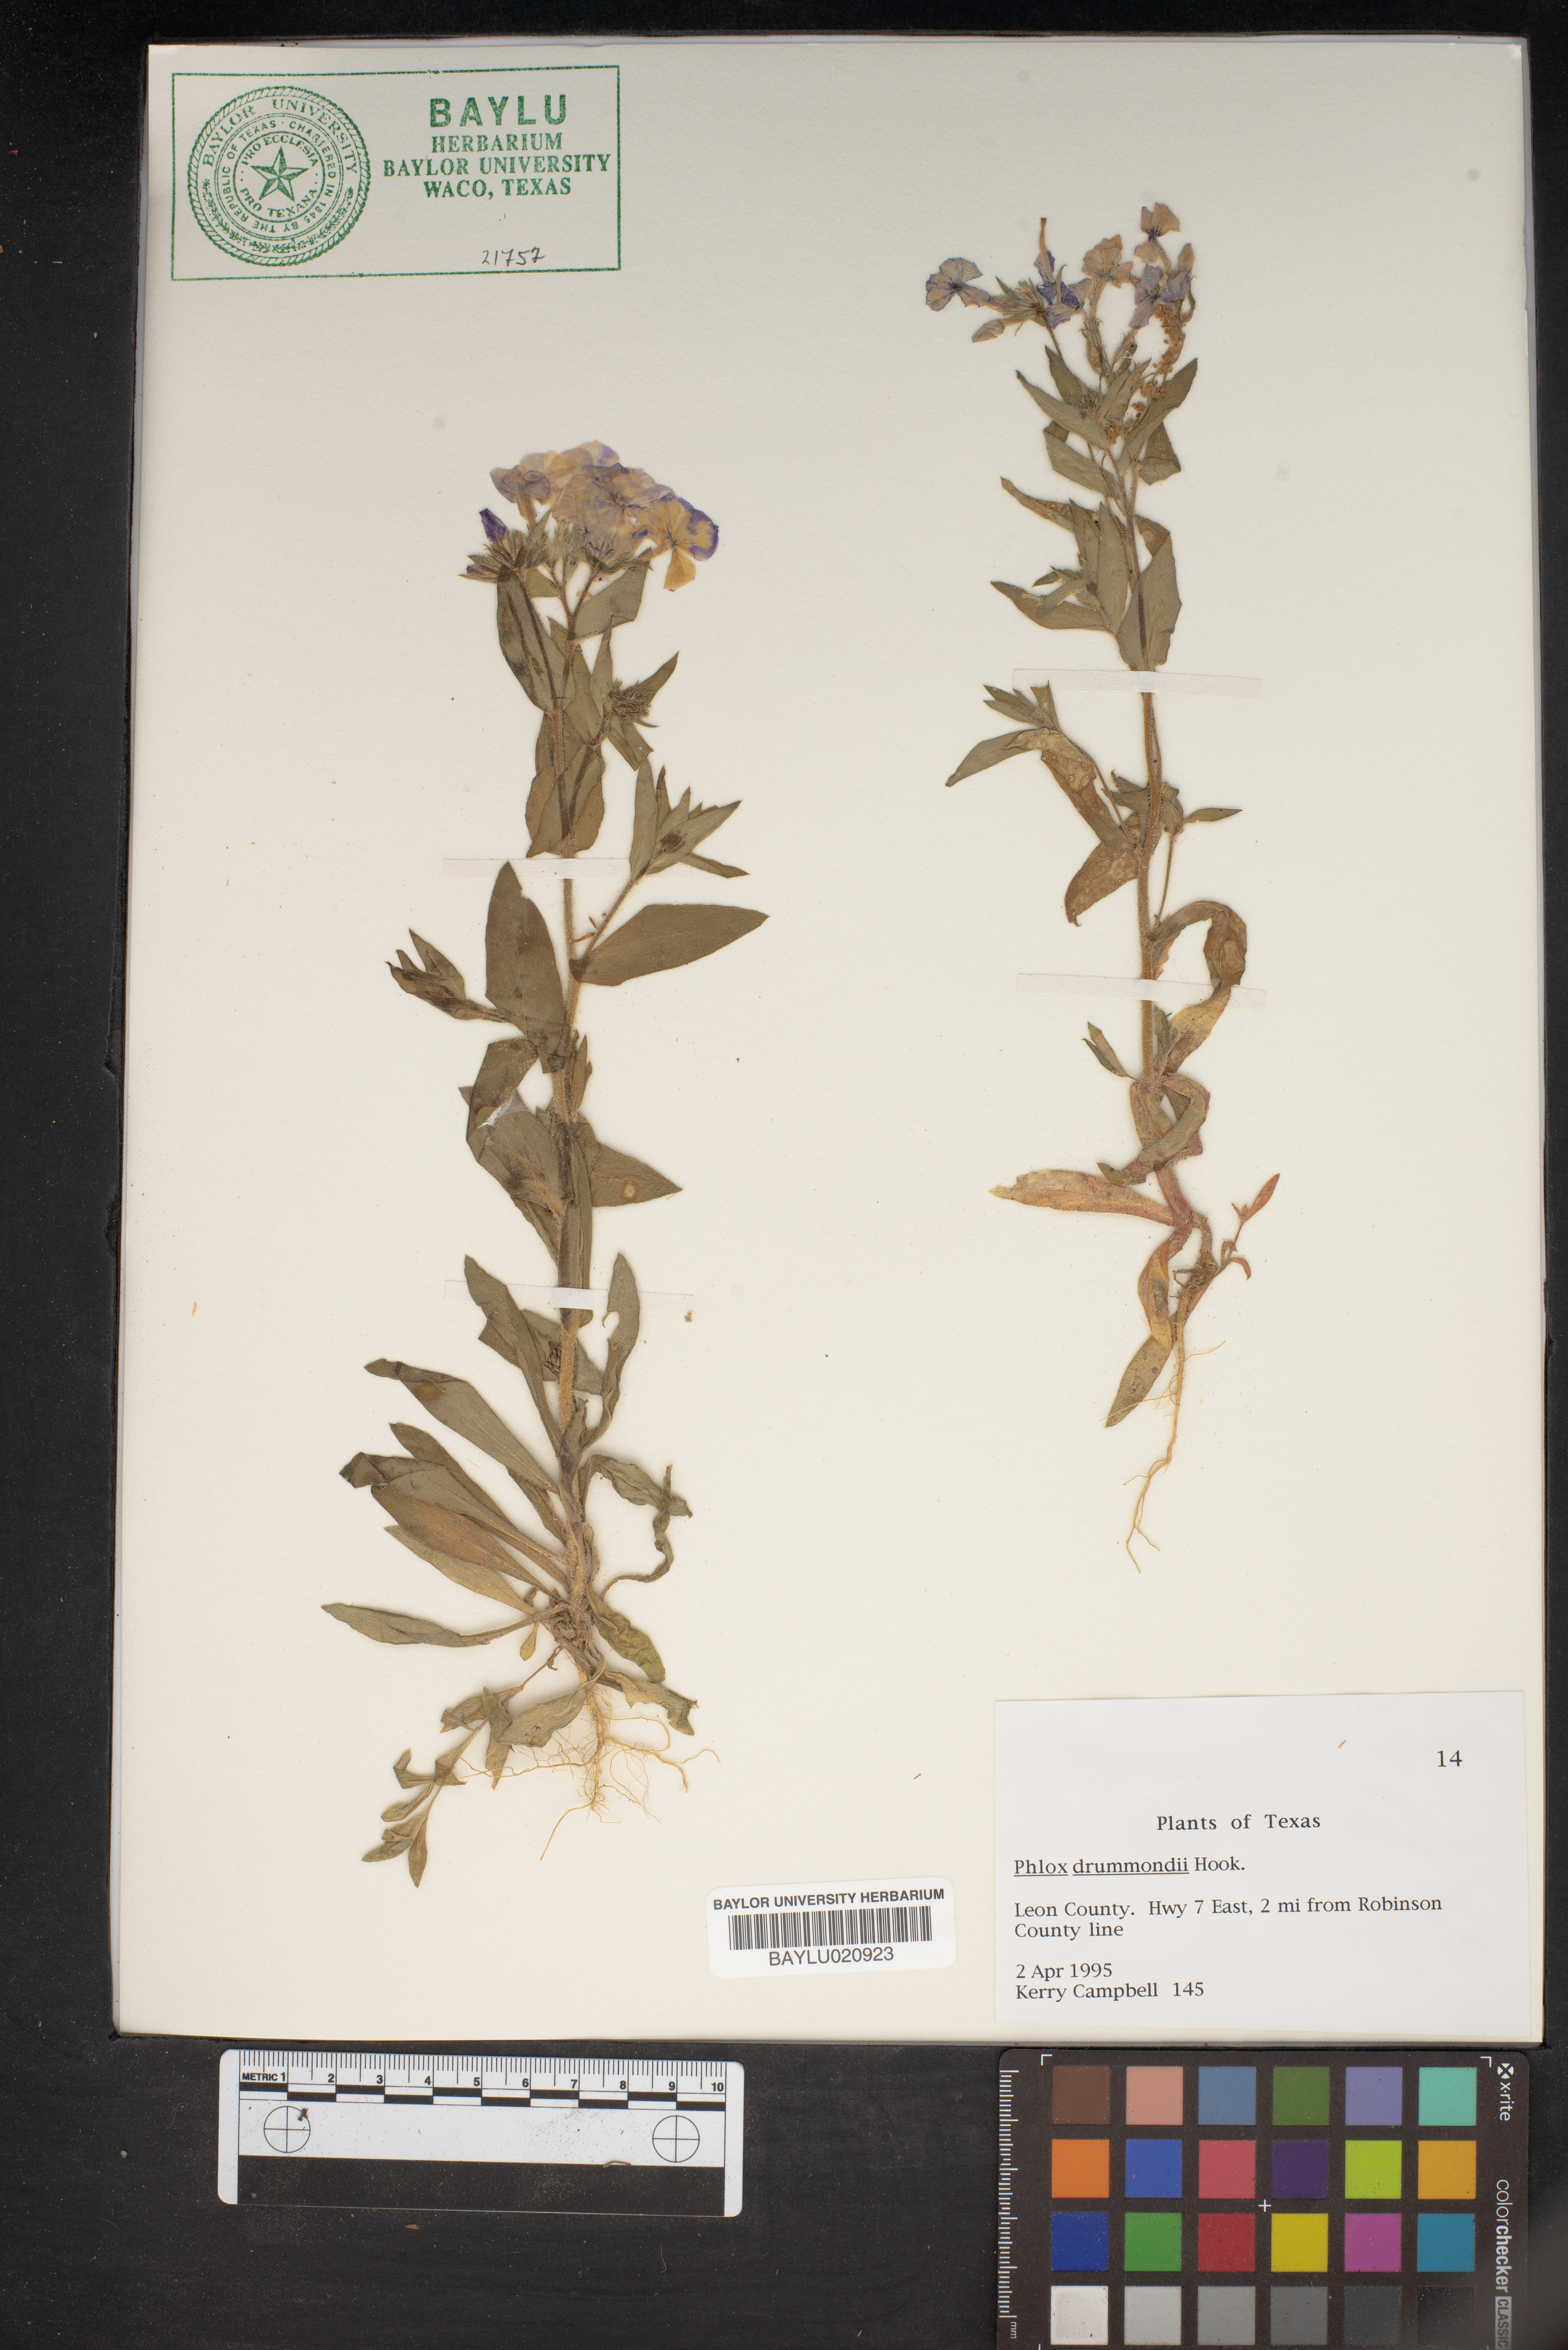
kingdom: Plantae
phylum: Tracheophyta
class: Magnoliopsida
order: Ericales
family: Polemoniaceae
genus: Phlox
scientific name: Phlox drummondii
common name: Drummond's phlox
